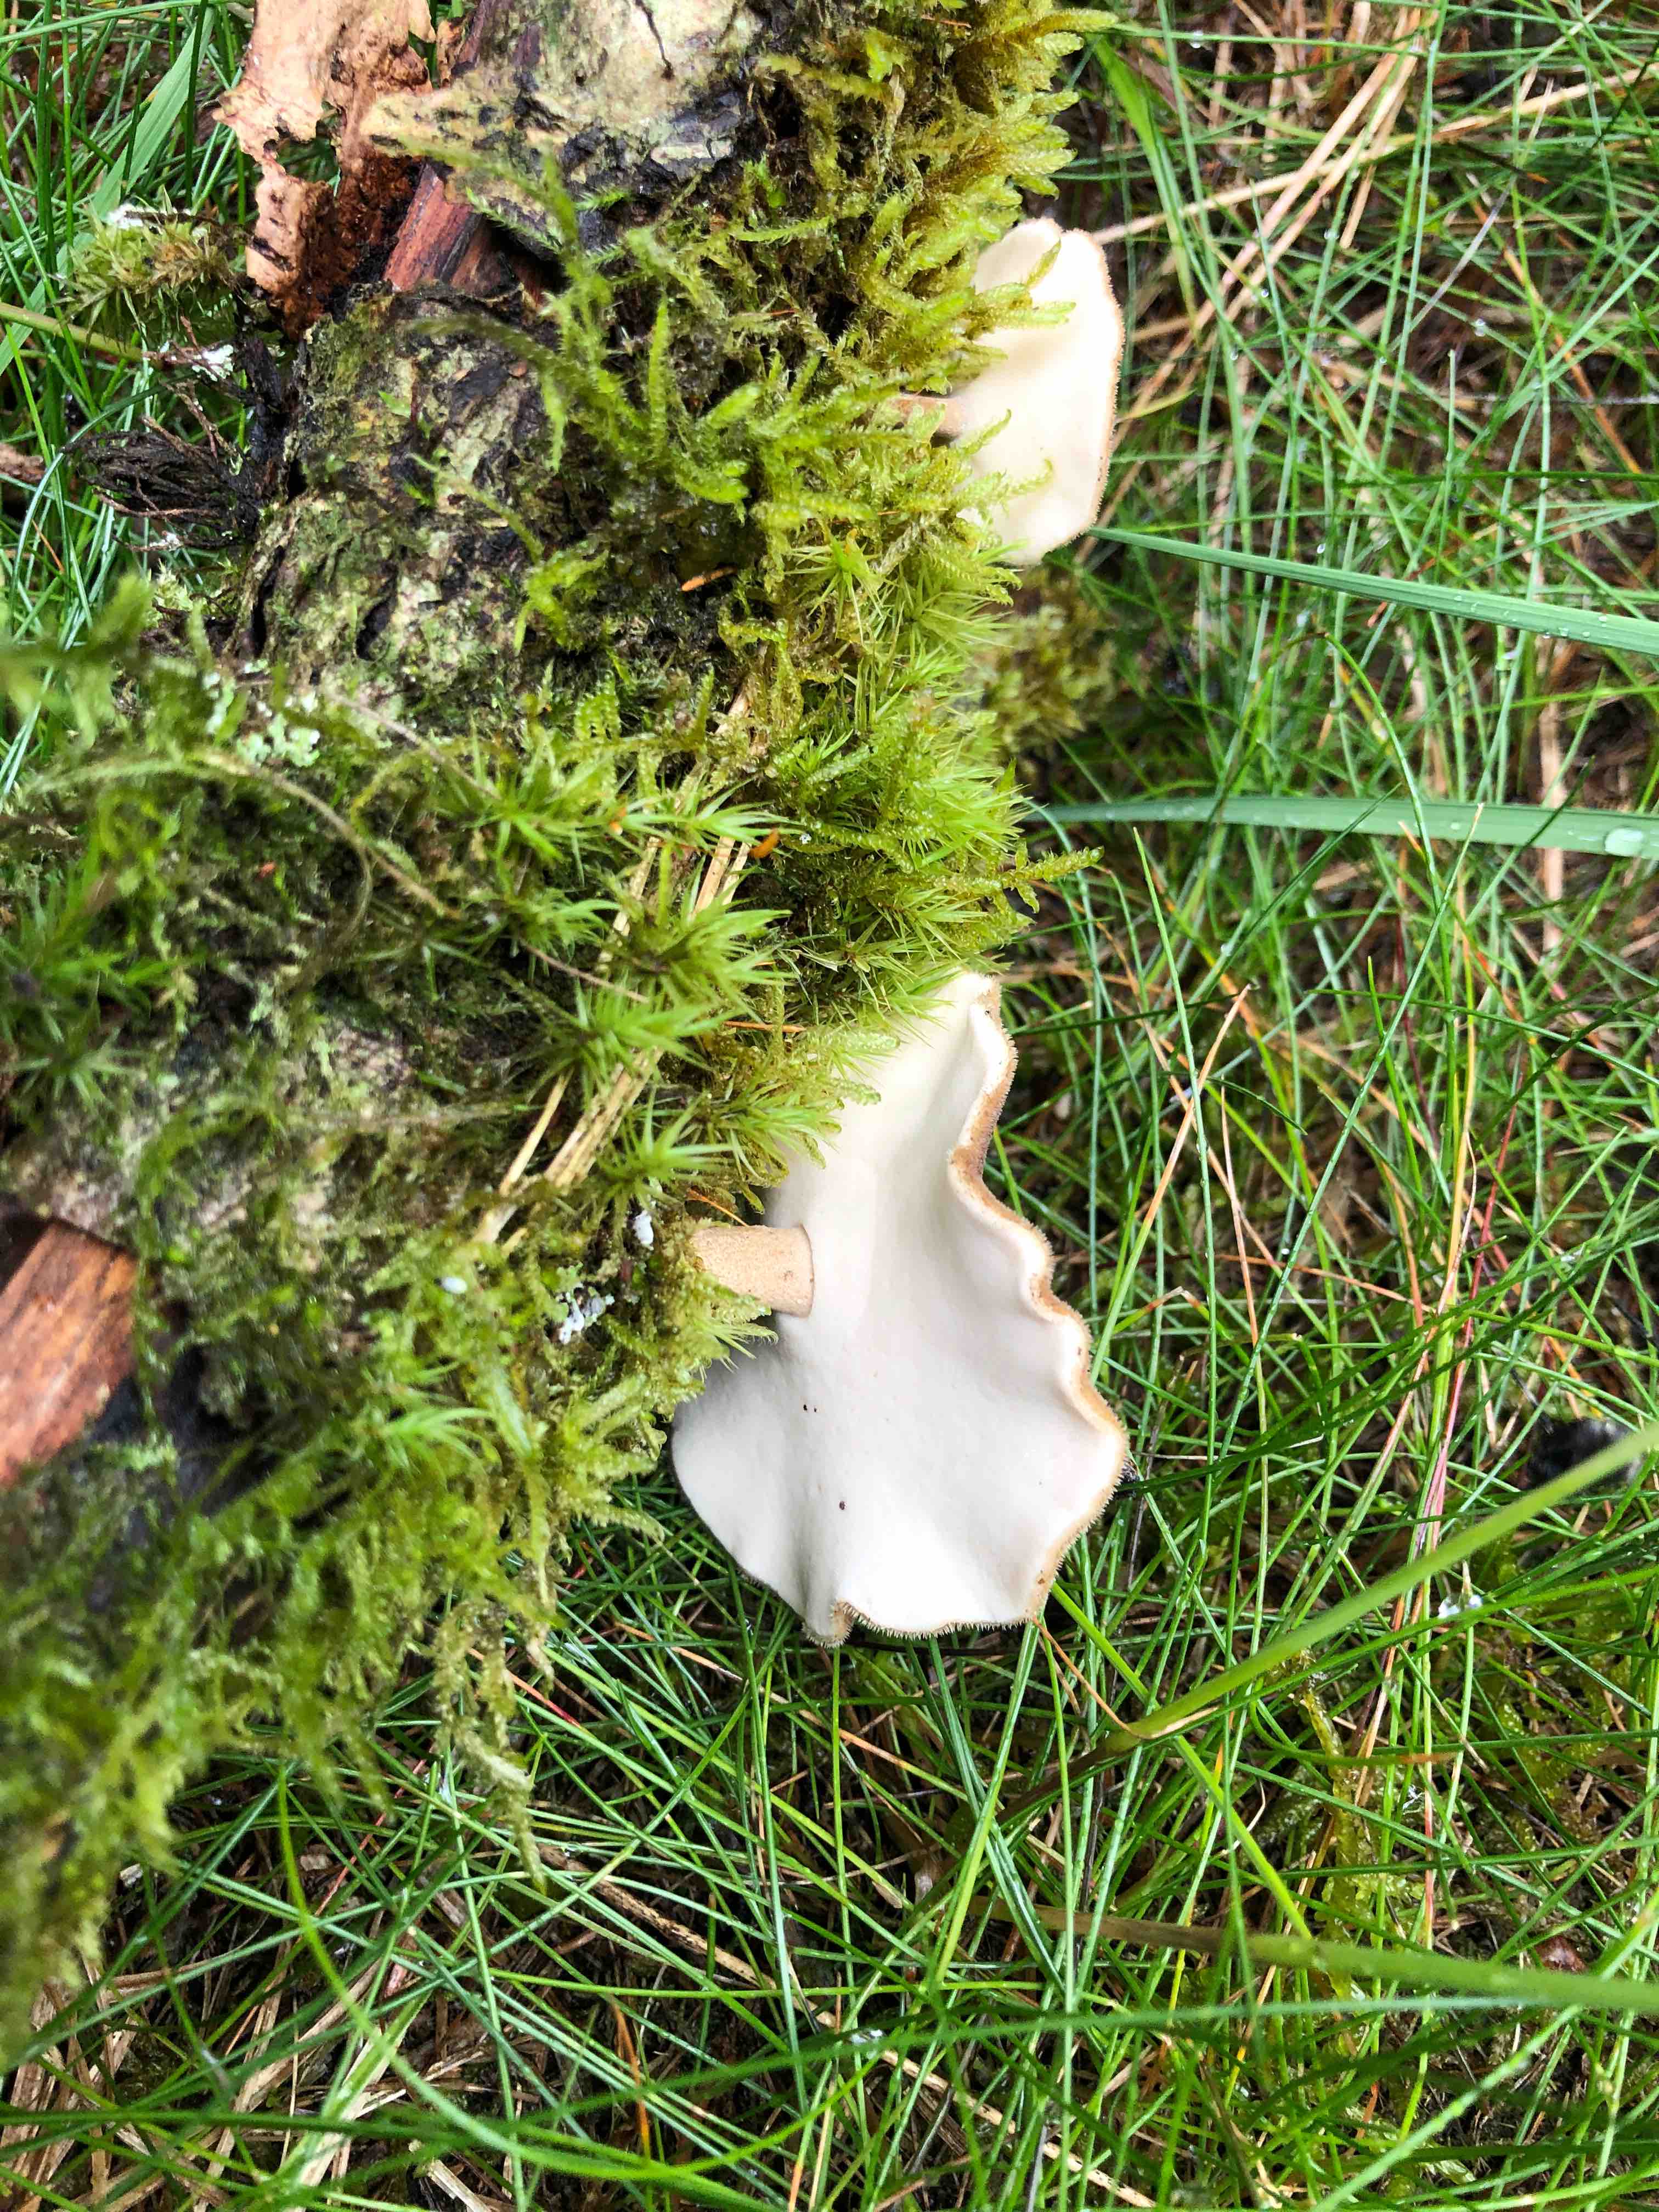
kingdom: Fungi
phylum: Basidiomycota
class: Agaricomycetes
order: Polyporales
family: Polyporaceae
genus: Lentinus
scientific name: Lentinus substrictus
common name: forårs-stilkporesvamp
